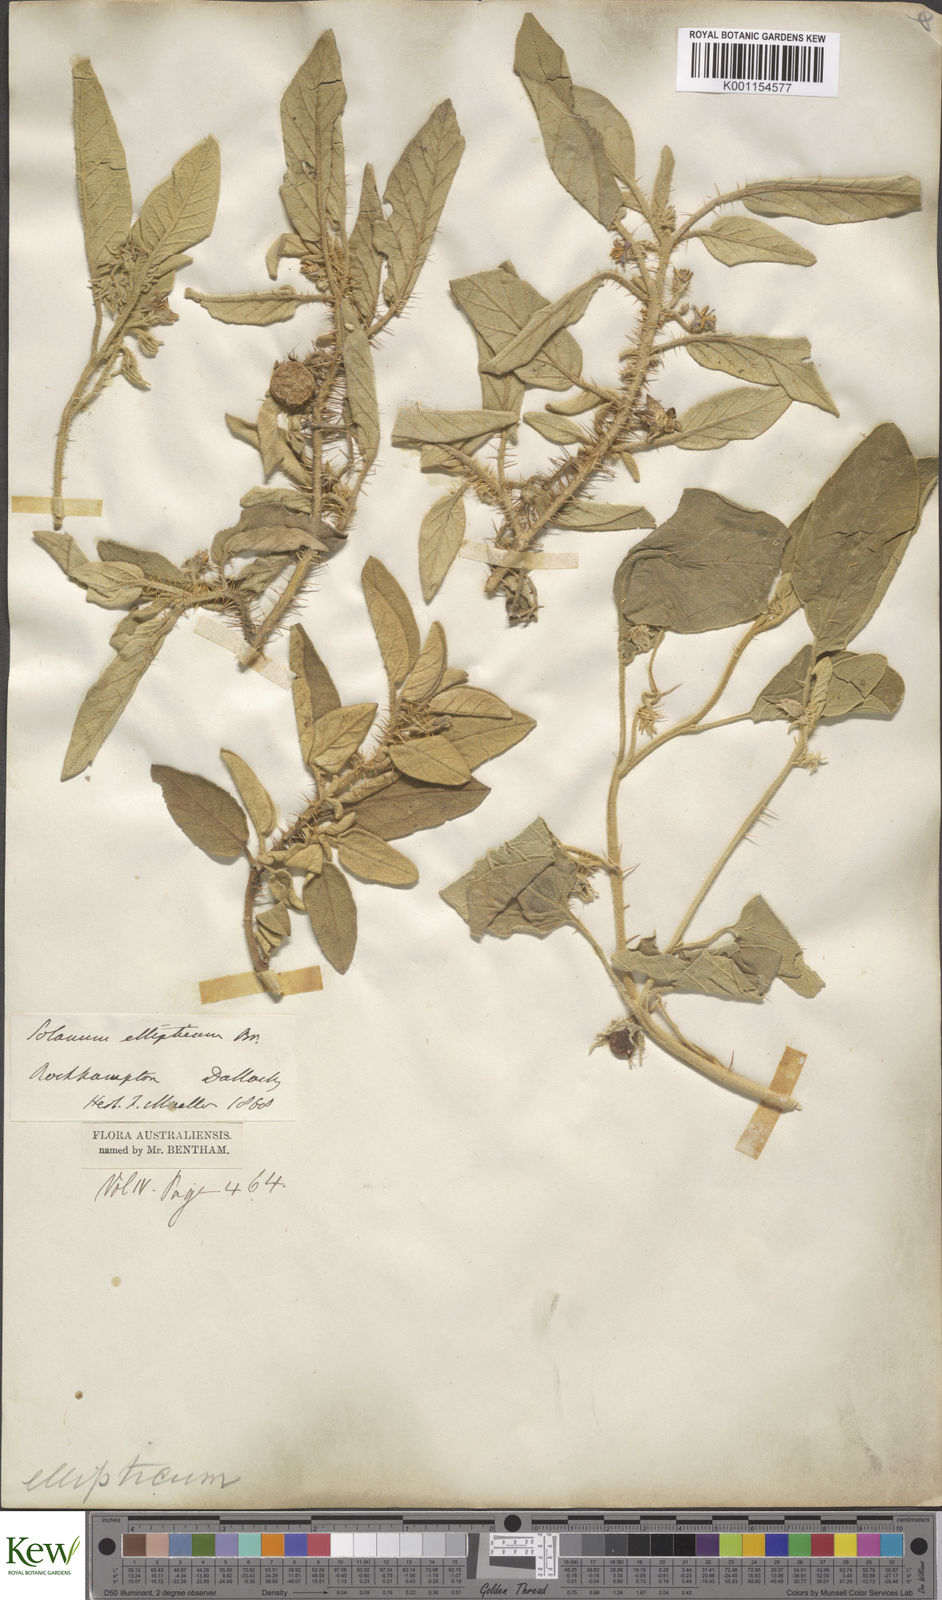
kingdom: Plantae
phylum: Tracheophyta
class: Magnoliopsida
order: Solanales
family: Solanaceae
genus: Solanum
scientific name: Solanum ellipticum
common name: Potato-bush
